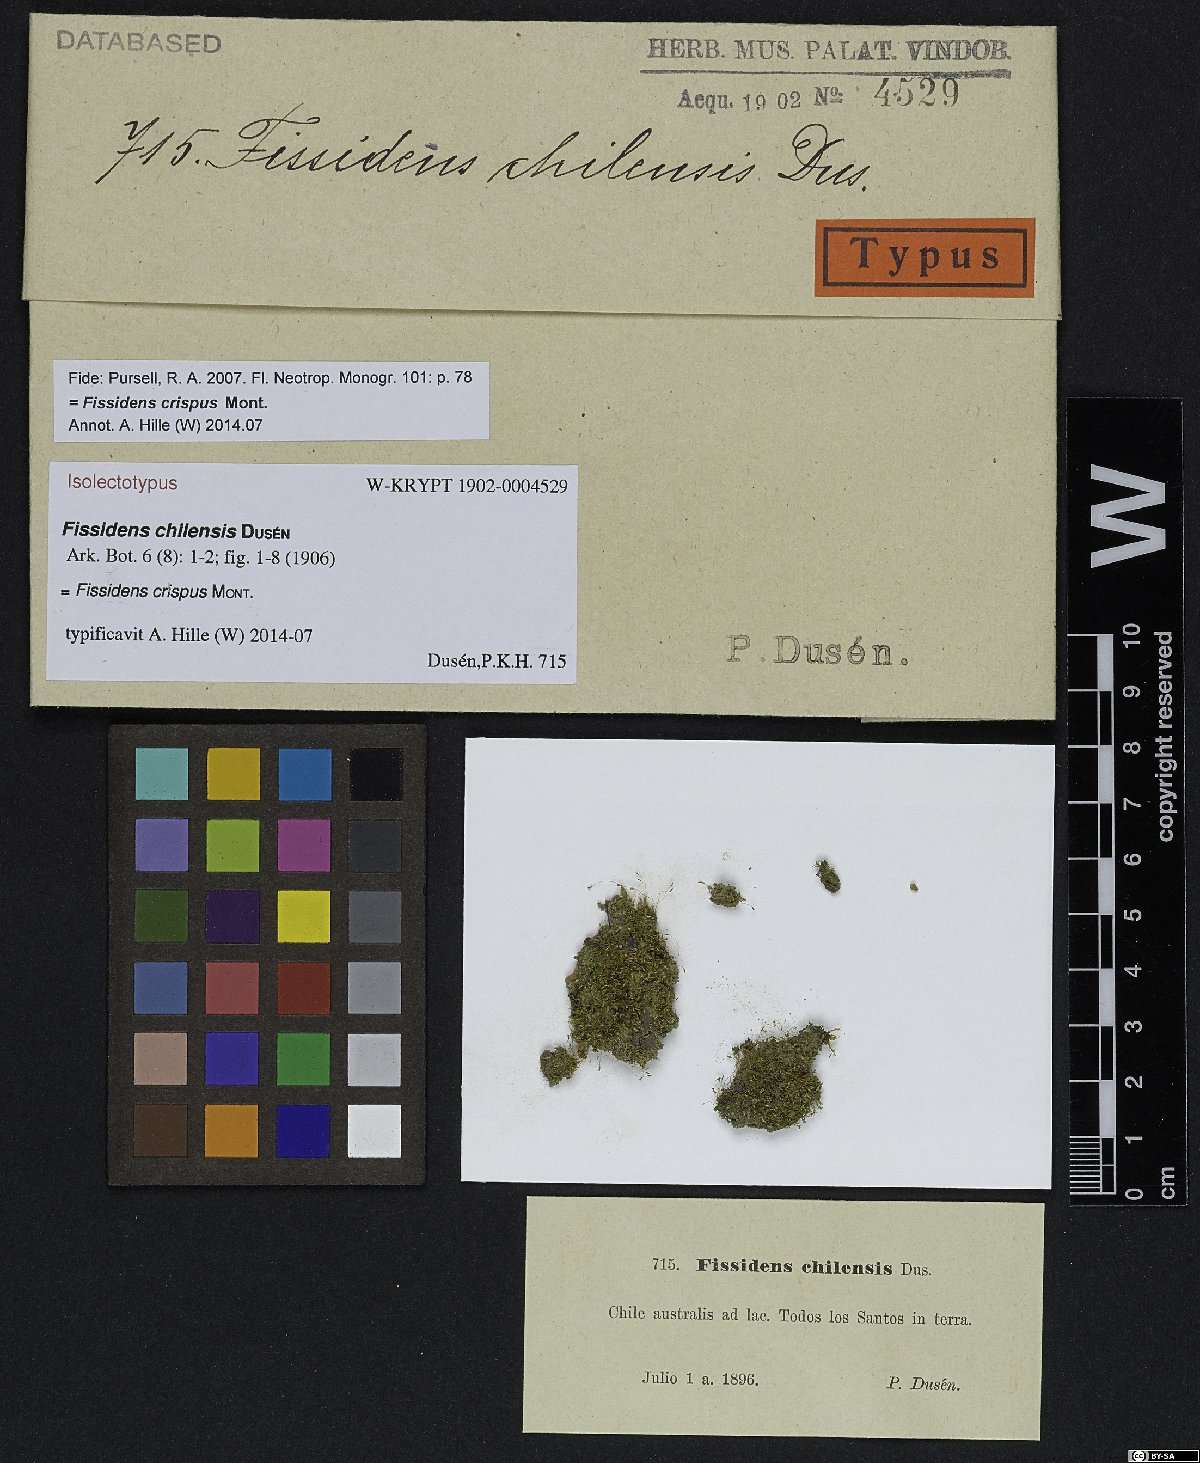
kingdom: Plantae
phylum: Bryophyta
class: Bryopsida
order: Dicranales
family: Fissidentaceae
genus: Fissidens
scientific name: Fissidens crispus
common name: Herzog's pocket-moss
